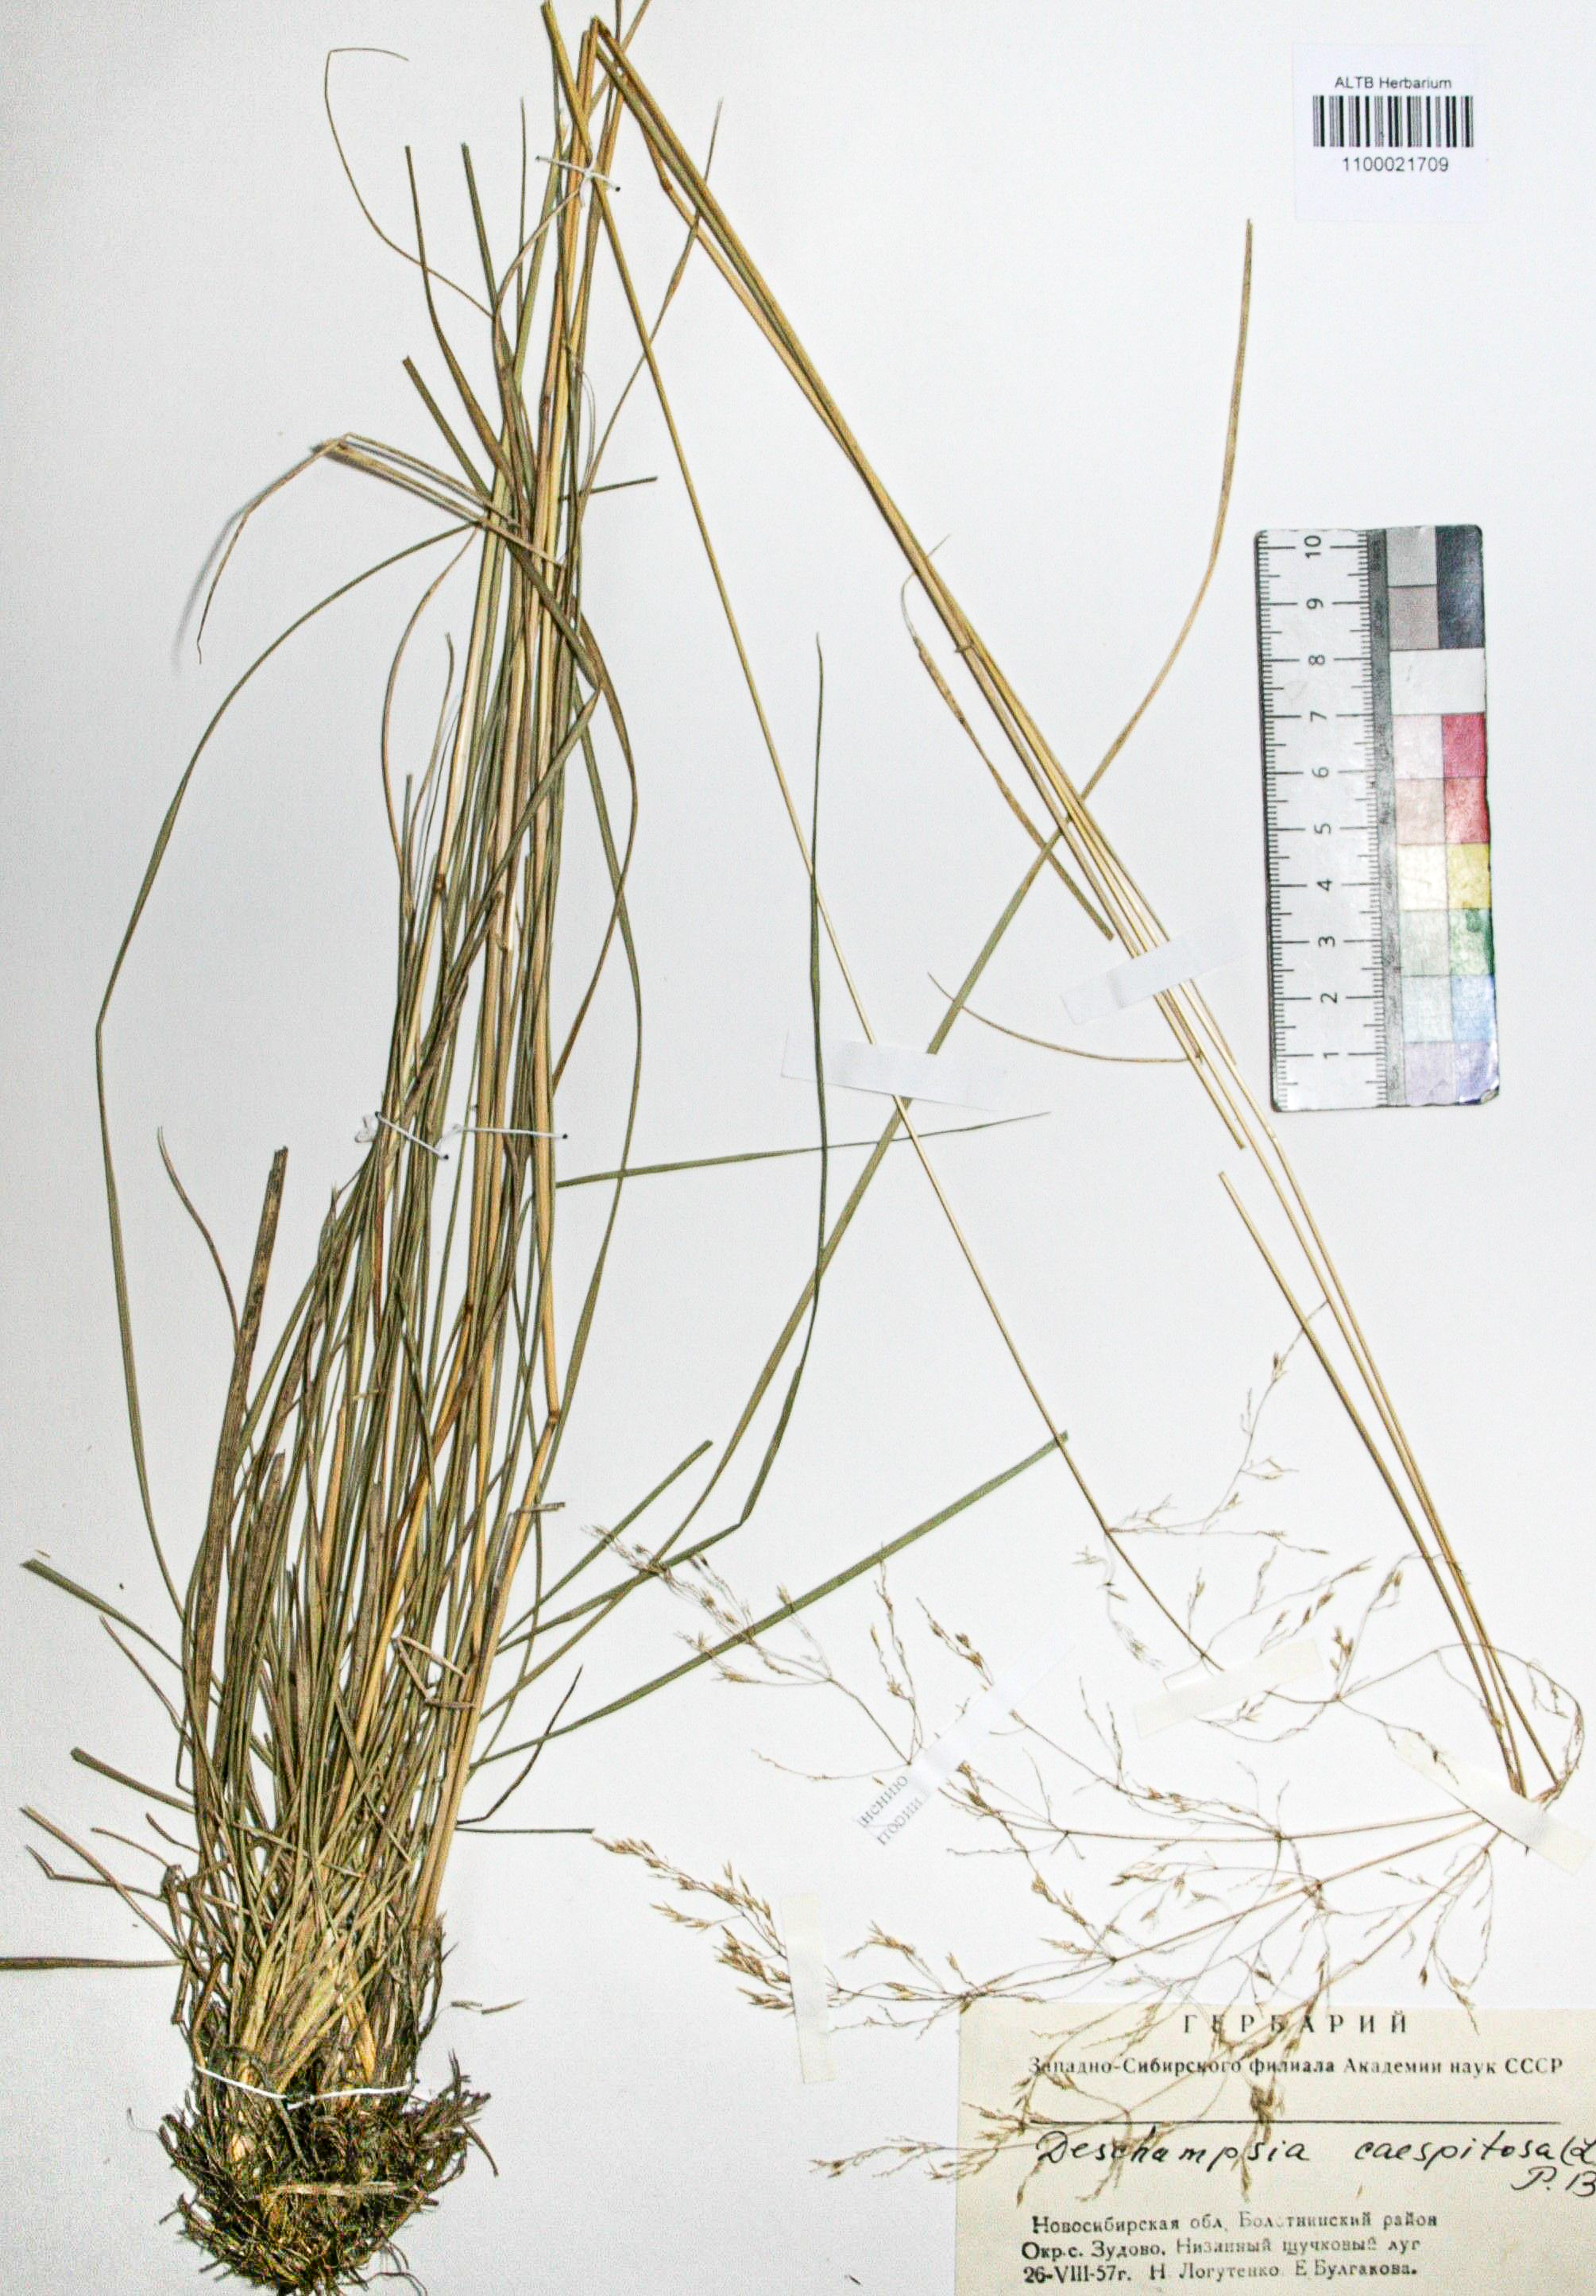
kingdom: Plantae
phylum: Tracheophyta
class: Liliopsida
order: Poales
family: Poaceae
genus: Deschampsia
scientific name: Deschampsia cespitosa
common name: Tufted hair-grass
